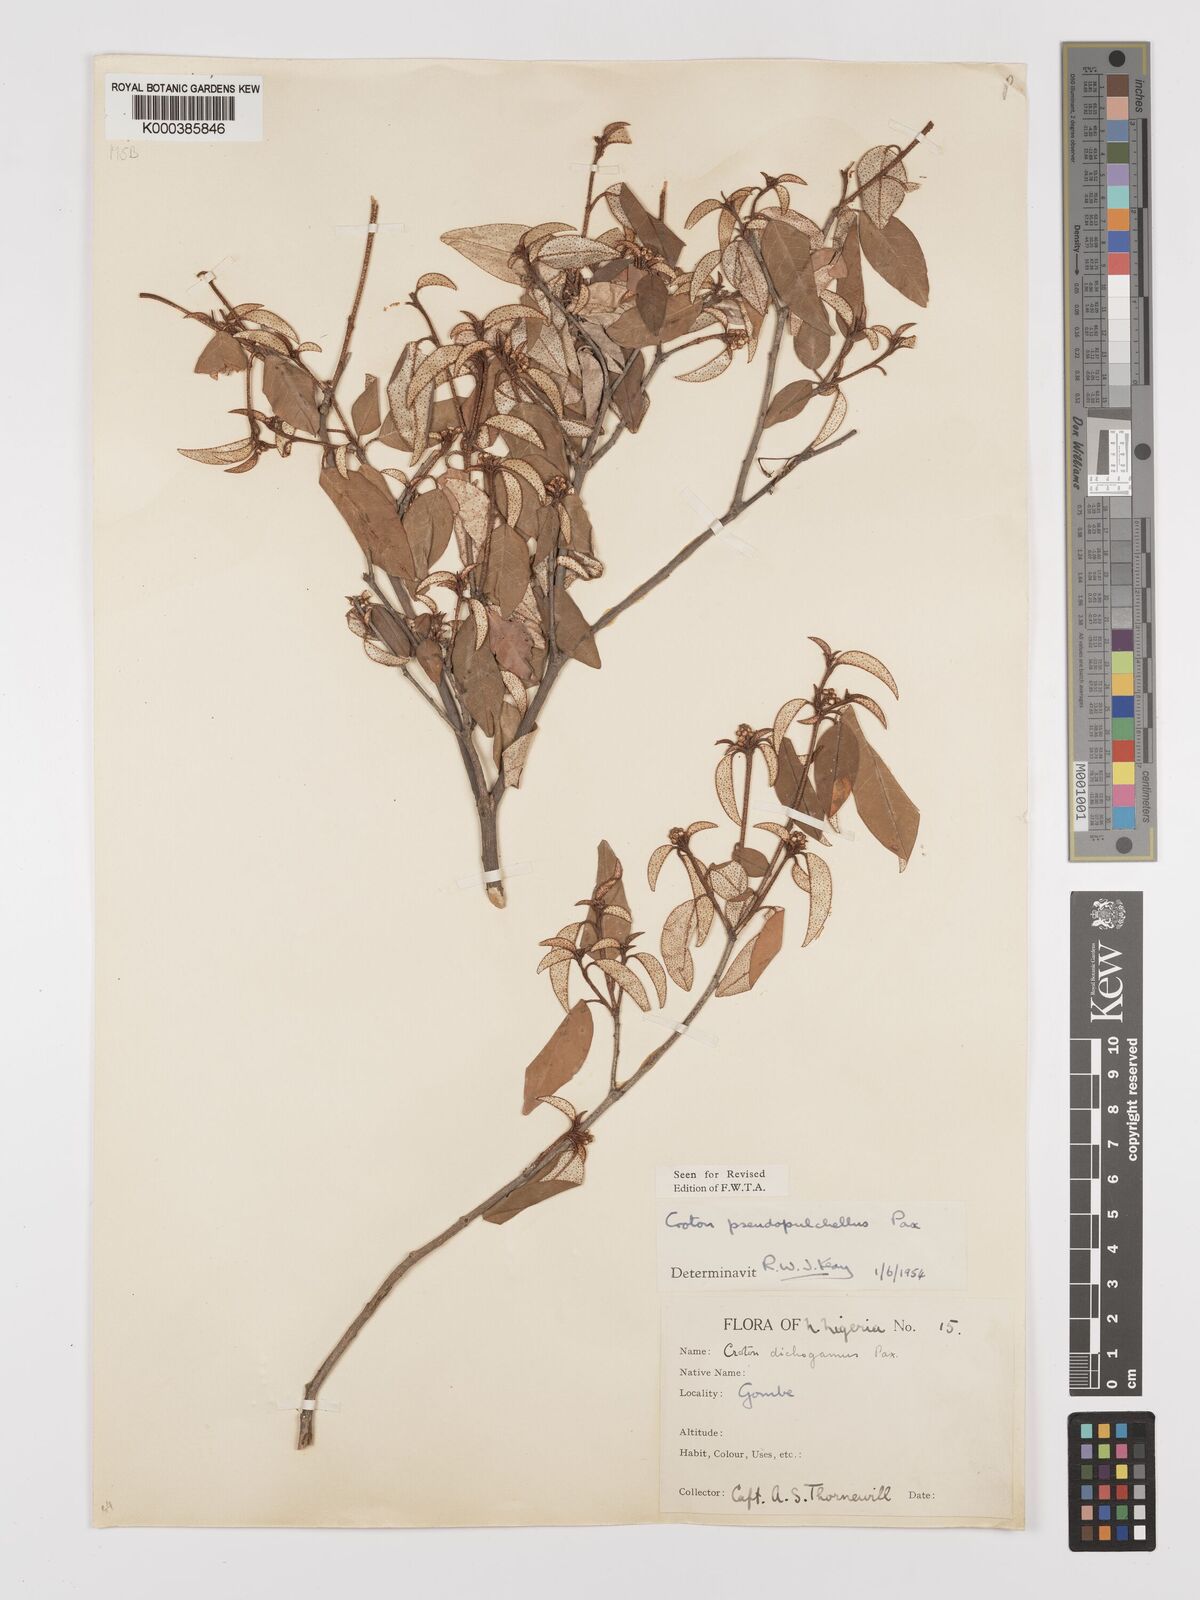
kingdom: Plantae
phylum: Tracheophyta
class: Magnoliopsida
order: Malpighiales
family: Euphorbiaceae
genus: Croton
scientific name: Croton pseudopulchellus
